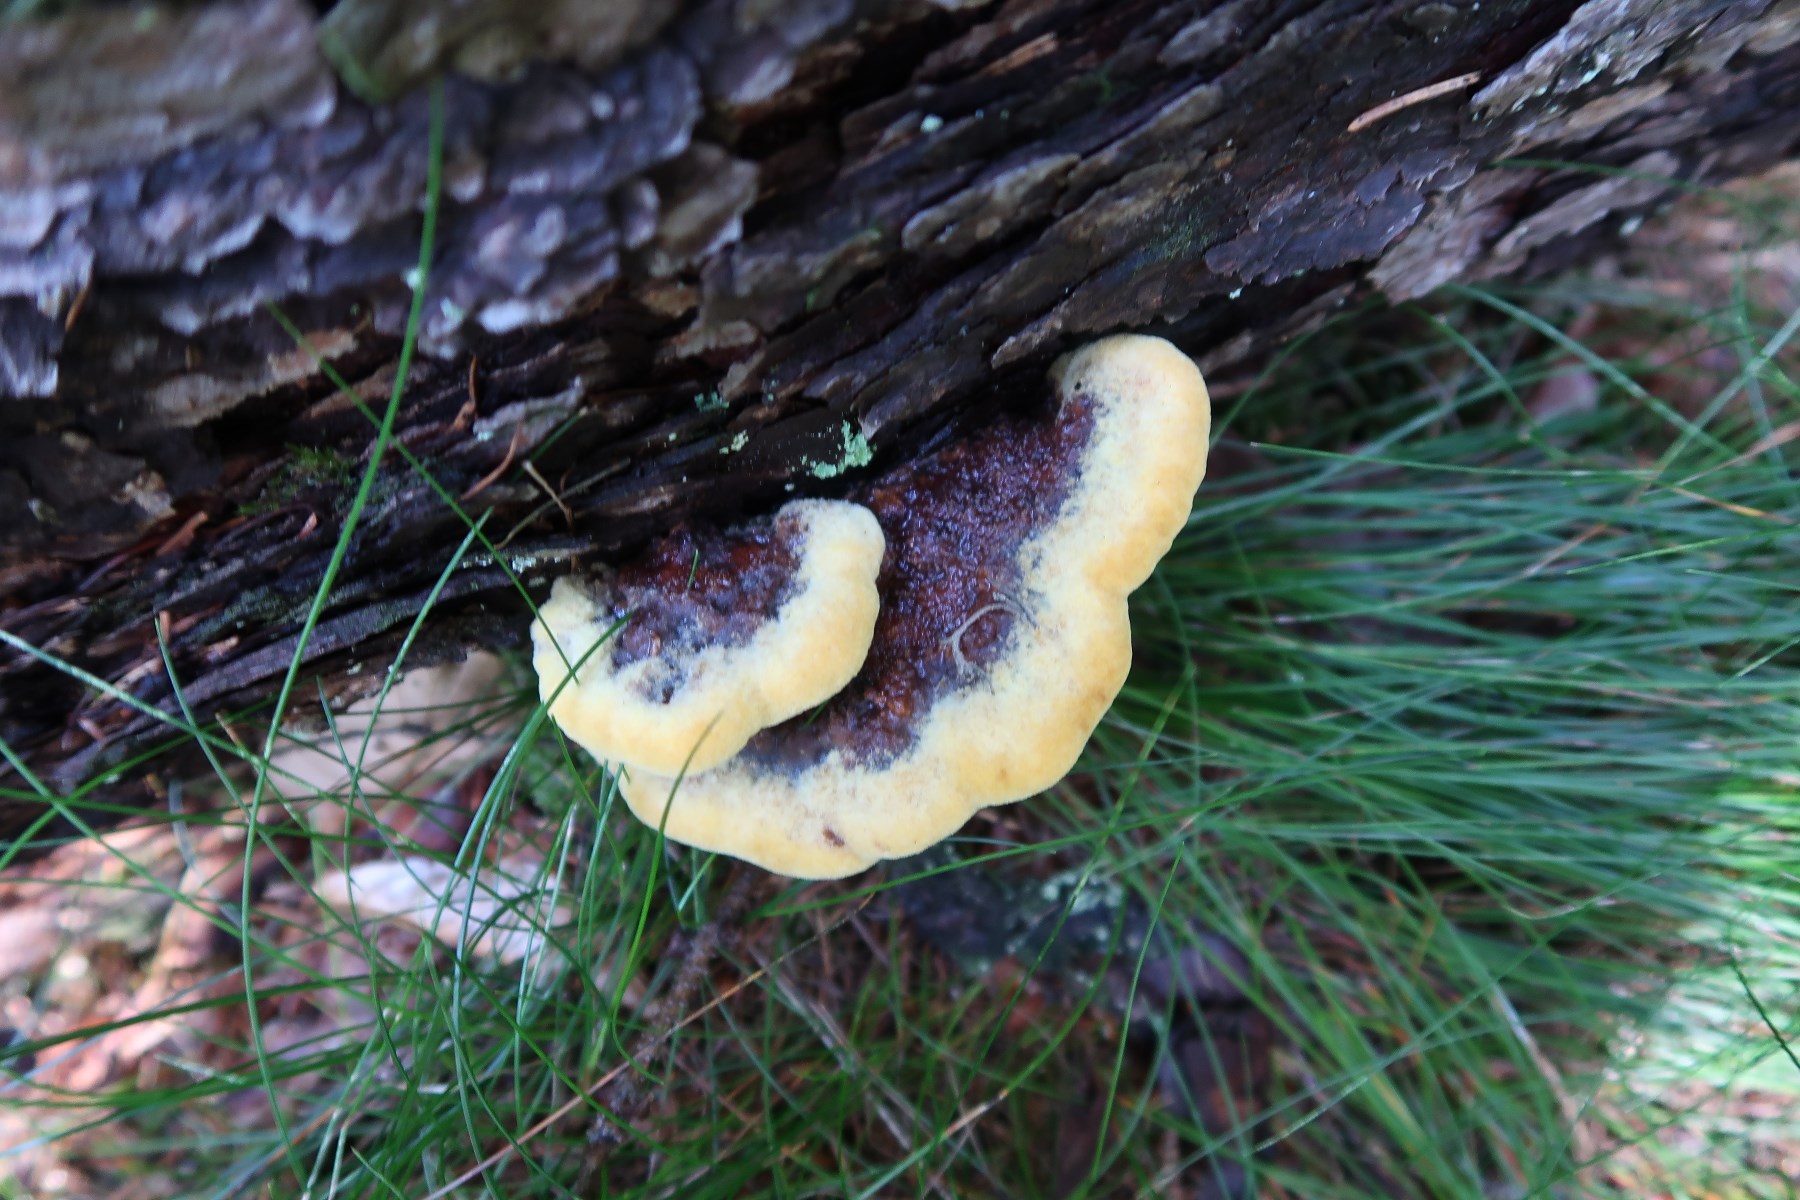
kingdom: Fungi
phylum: Basidiomycota
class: Agaricomycetes
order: Polyporales
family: Laetiporaceae
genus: Phaeolus
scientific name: Phaeolus schweinitzii
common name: brunporesvamp
